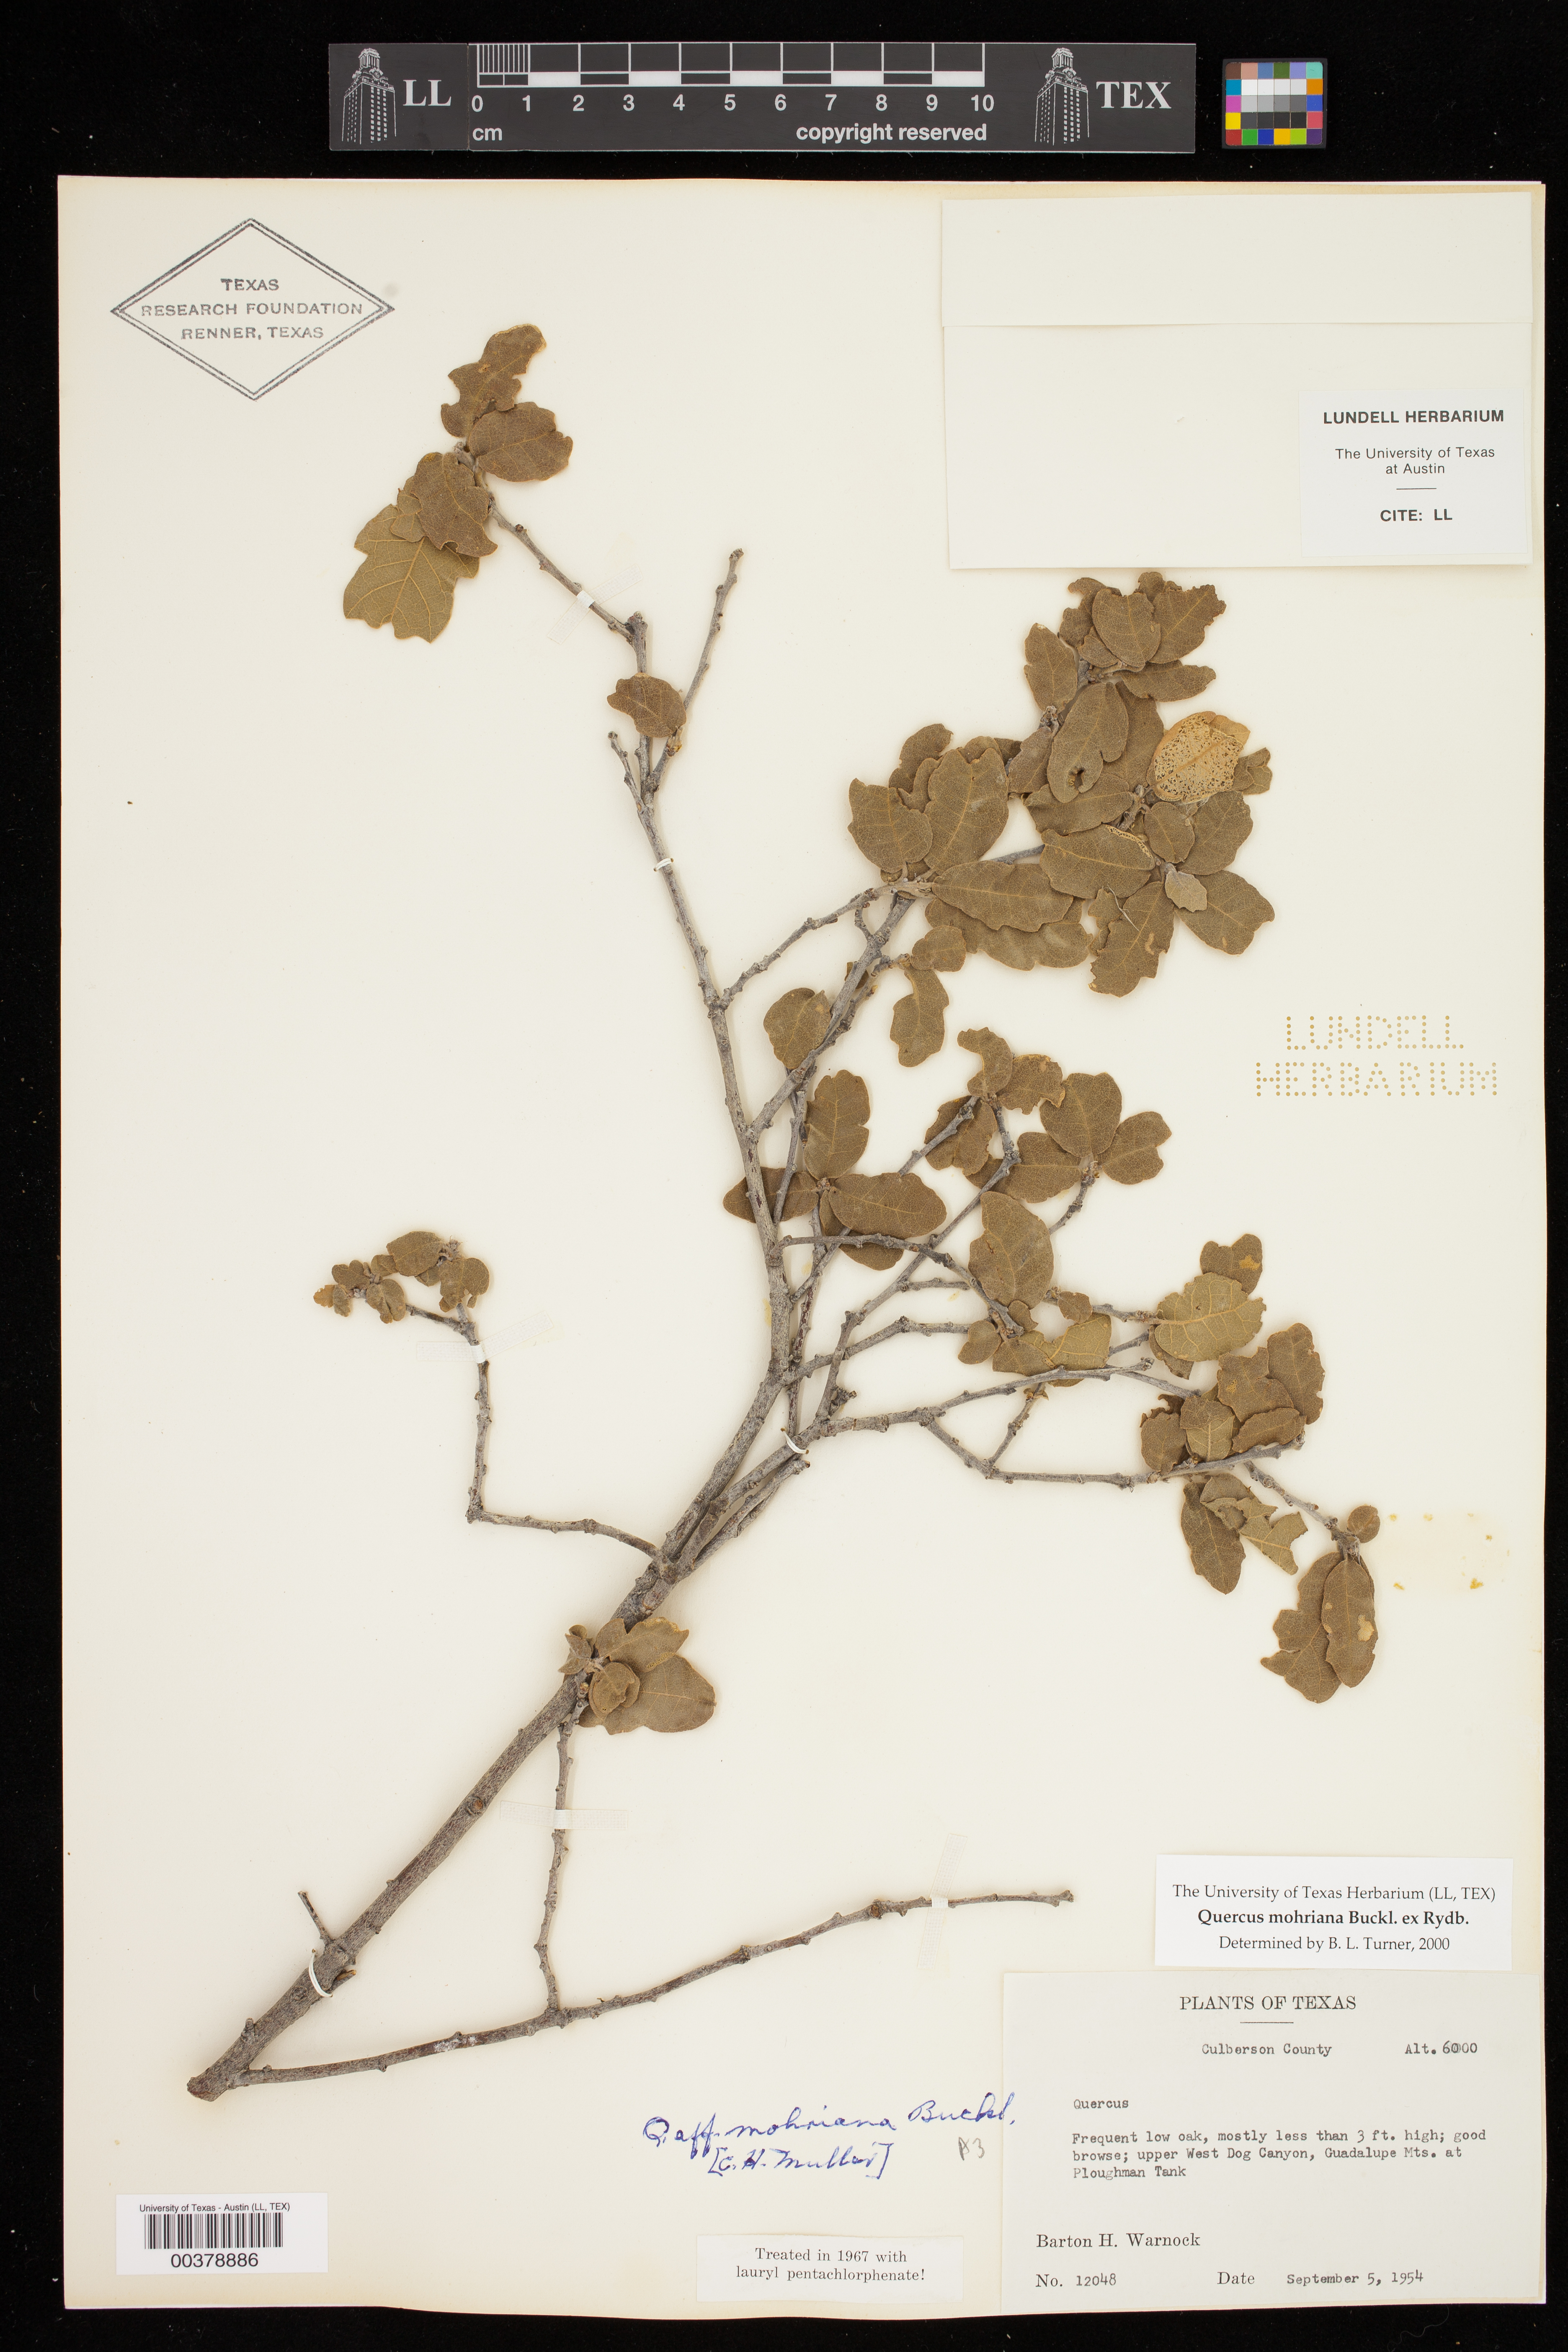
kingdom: Plantae
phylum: Tracheophyta
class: Magnoliopsida
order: Fagales
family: Fagaceae
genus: Quercus
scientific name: Quercus mohriana
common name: Mohr oak
